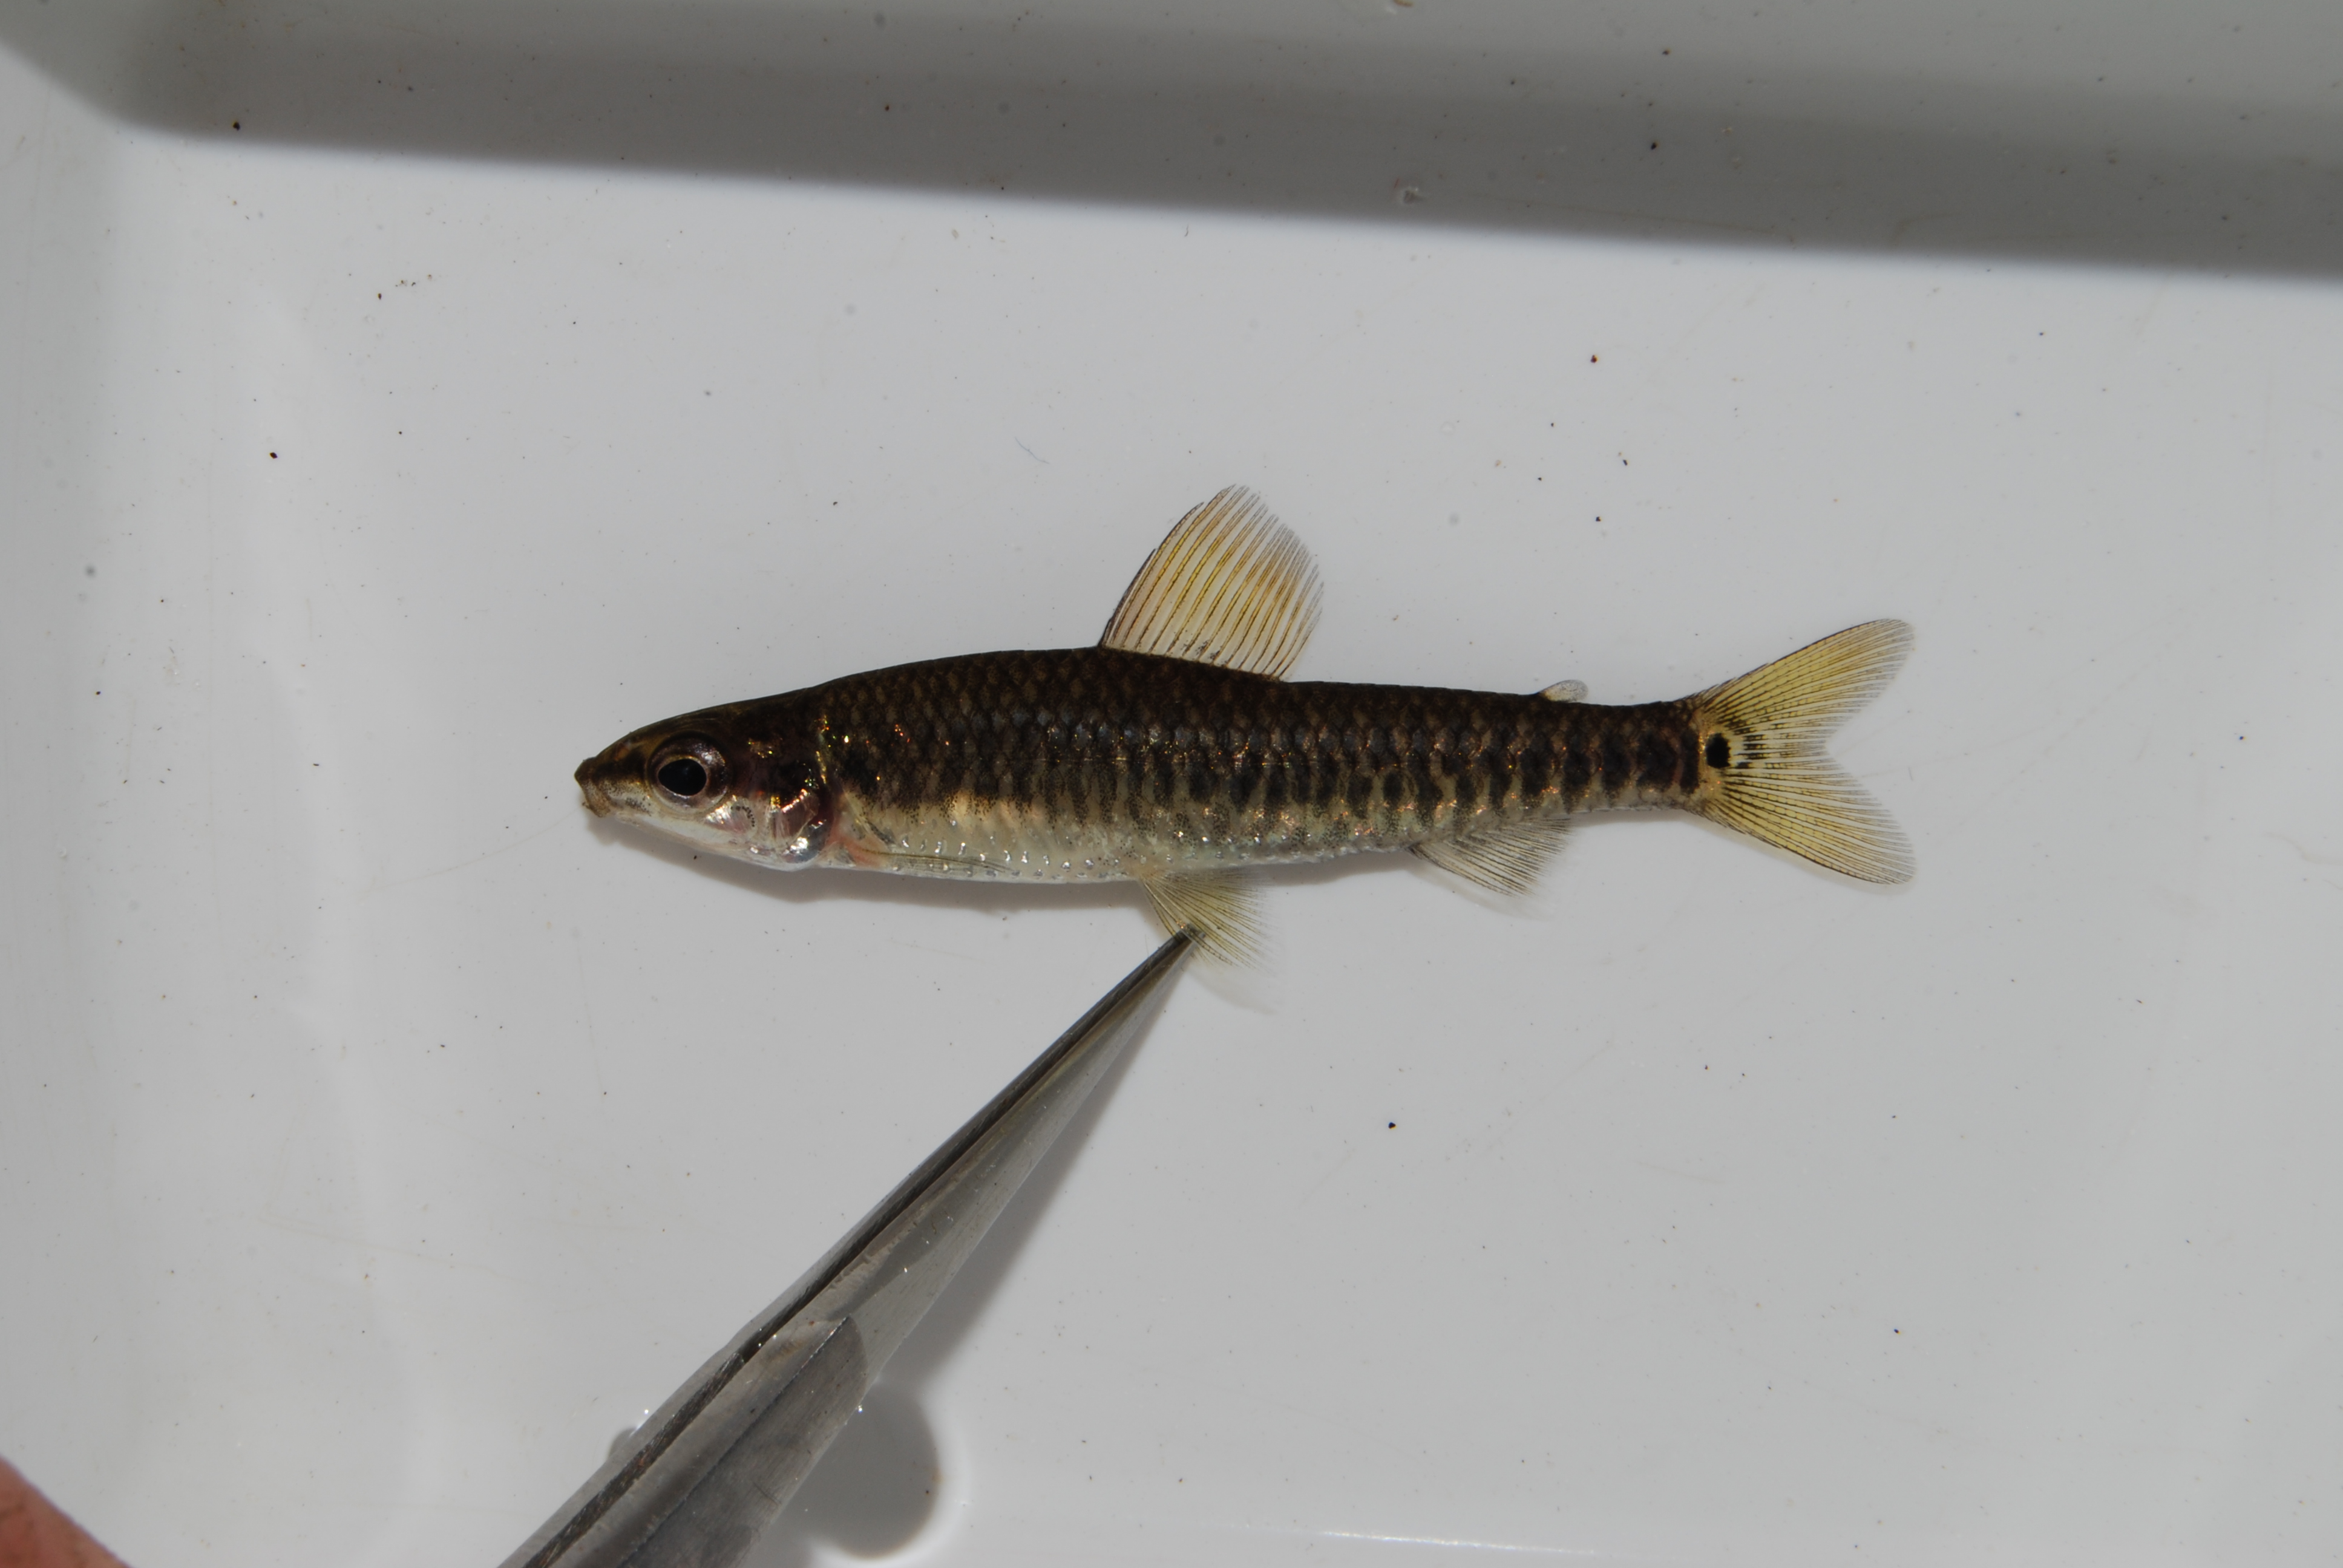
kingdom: Animalia
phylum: Chordata
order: Characiformes
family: Distichodontidae
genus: Nannocharax
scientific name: Nannocharax machadoi
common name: Dwarf citharine
